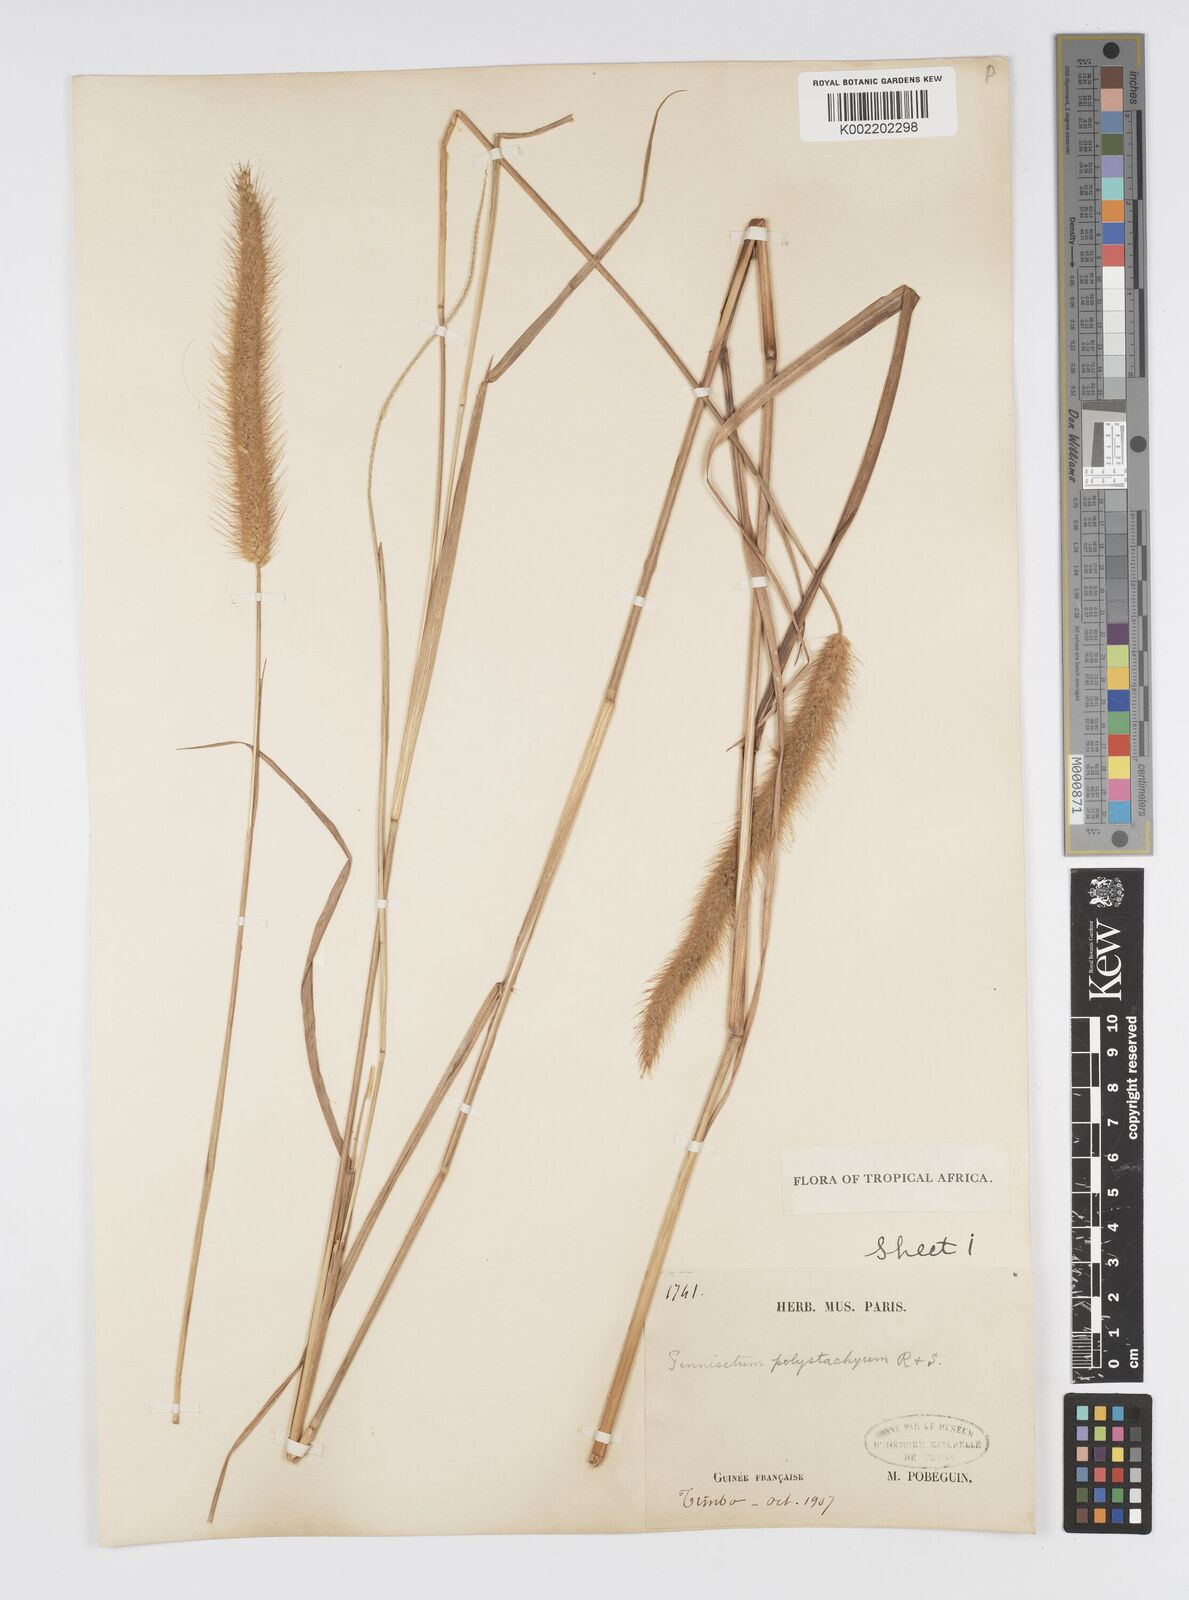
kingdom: Plantae
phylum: Tracheophyta
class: Liliopsida
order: Poales
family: Poaceae
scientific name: Poaceae
